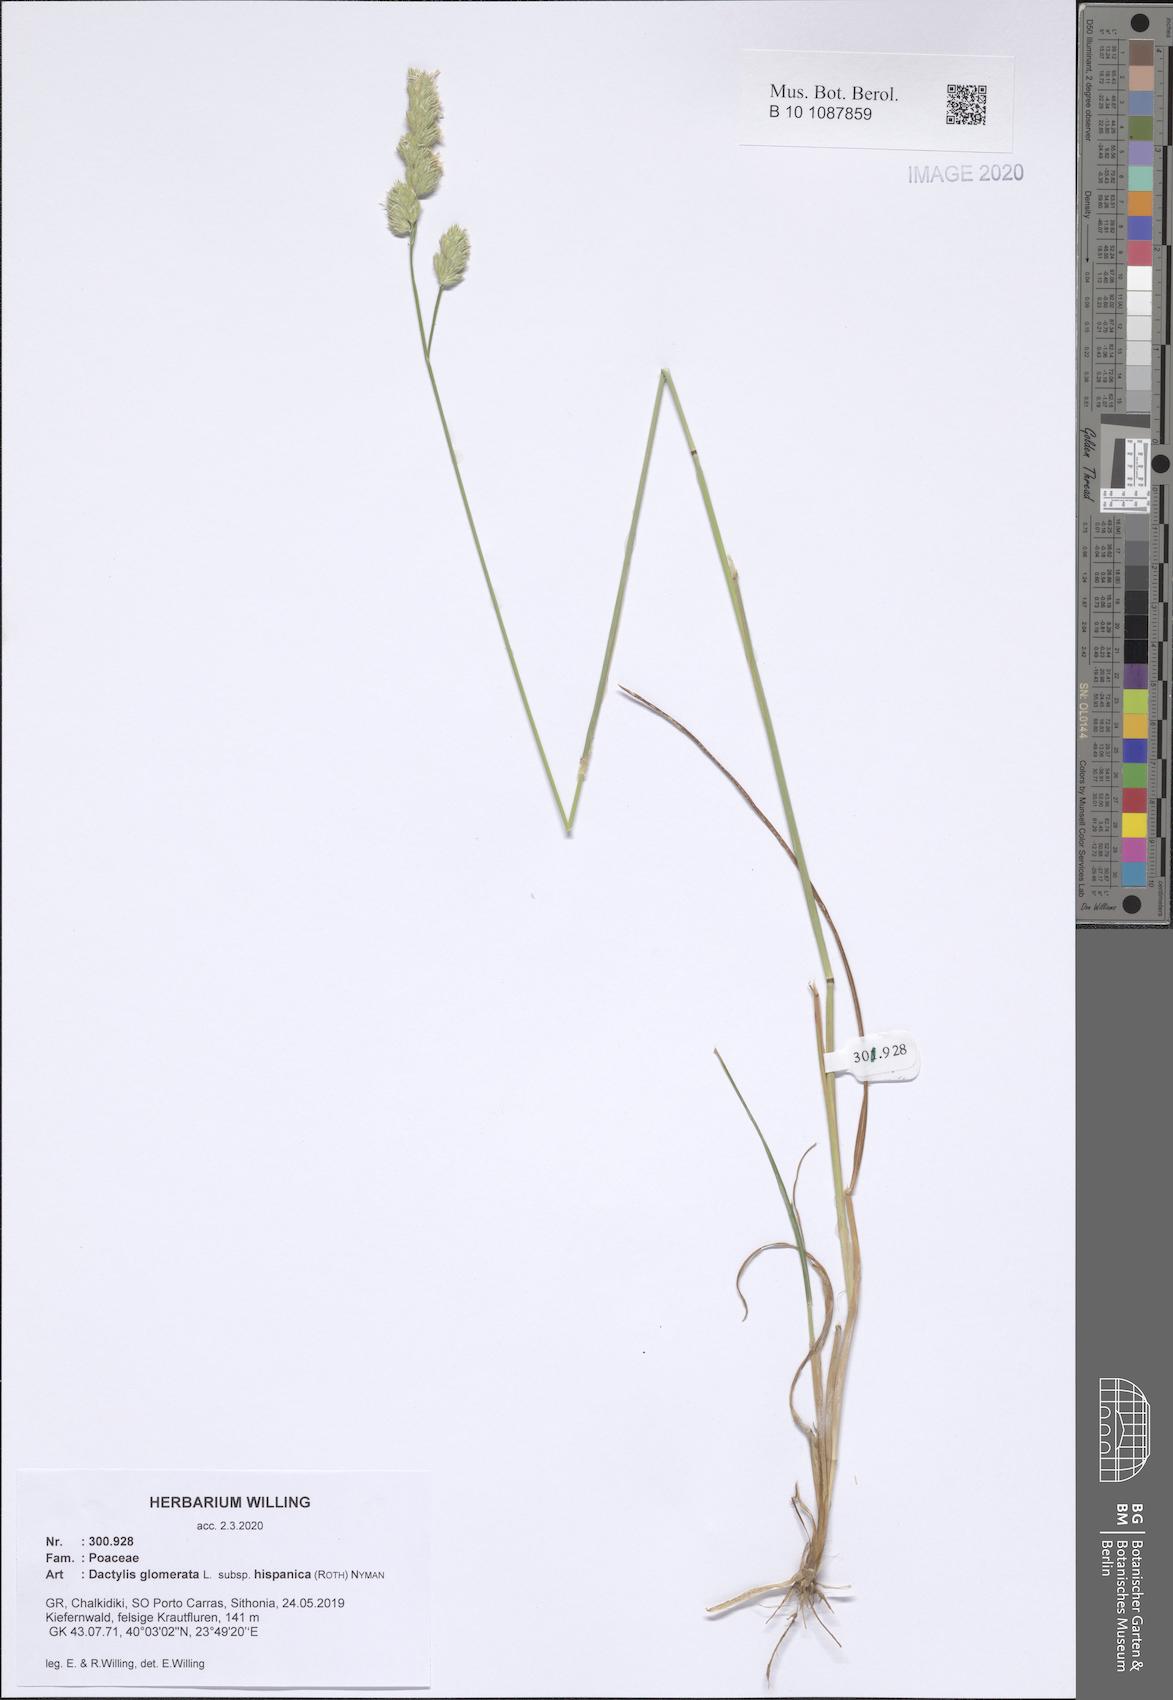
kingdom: Plantae
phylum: Tracheophyta
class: Liliopsida
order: Poales
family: Poaceae
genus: Dactylis
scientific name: Dactylis glomerata
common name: Orchardgrass
